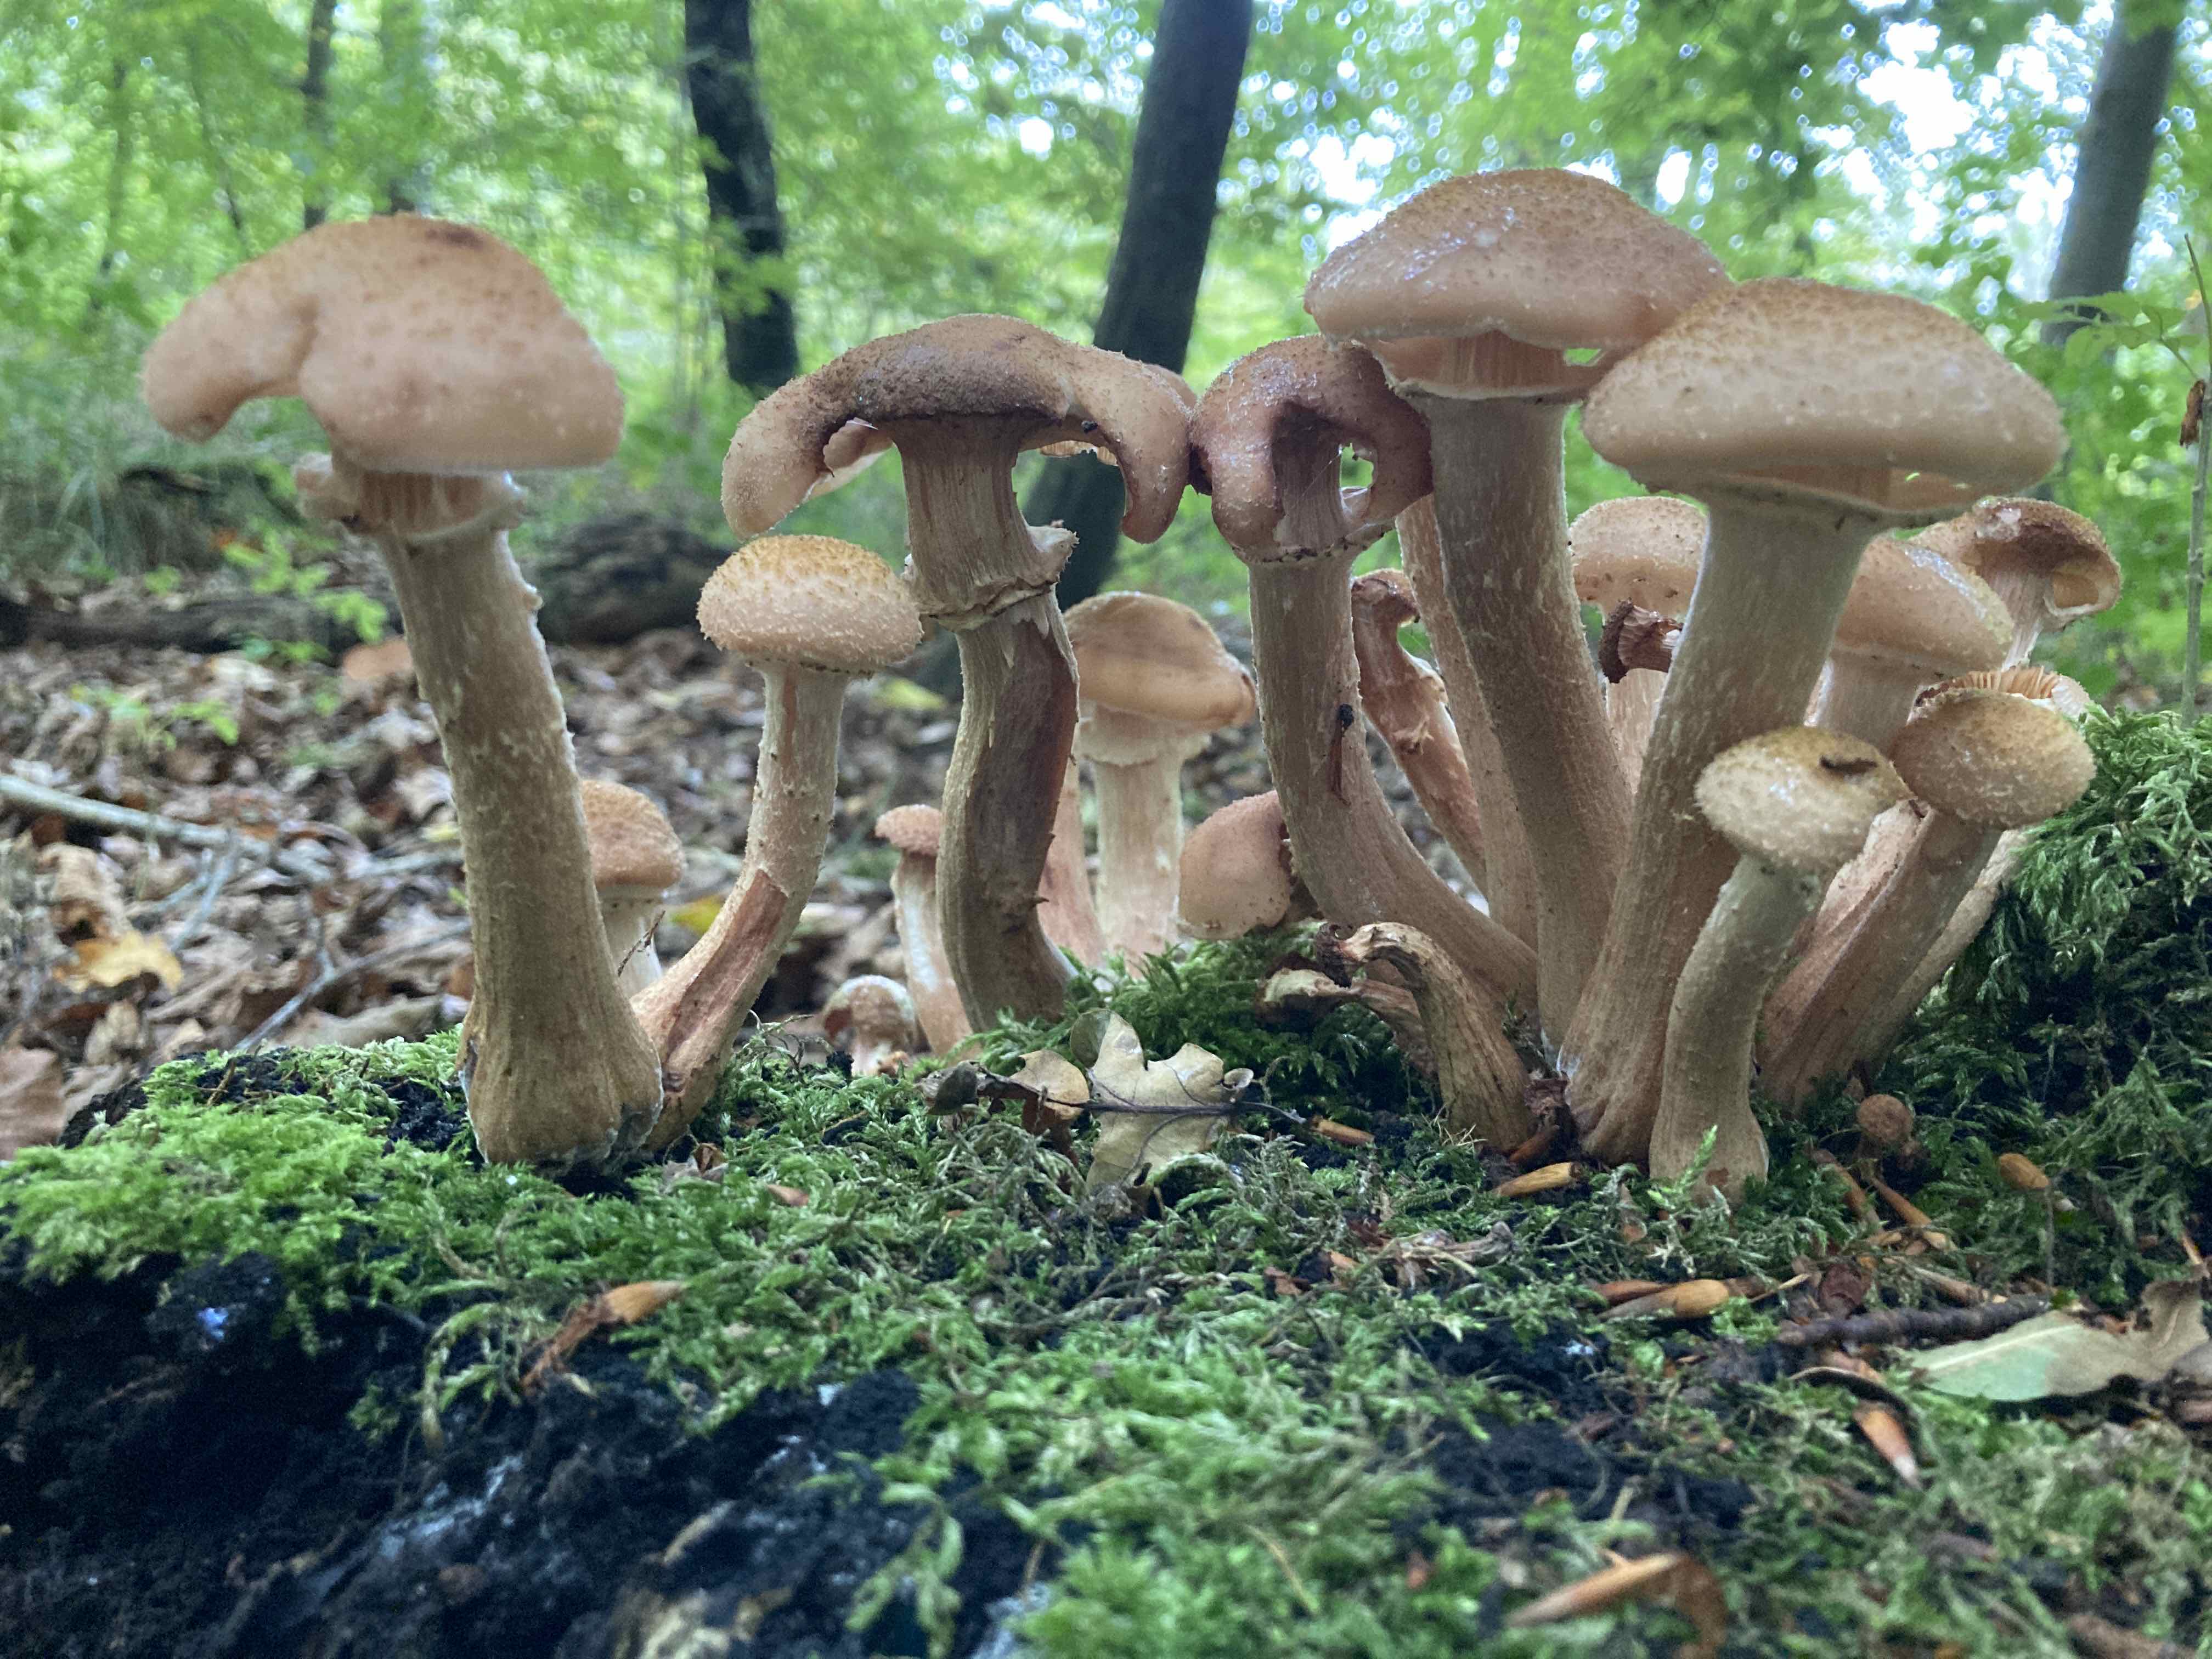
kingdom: Fungi
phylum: Basidiomycota
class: Agaricomycetes
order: Agaricales
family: Physalacriaceae
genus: Armillaria
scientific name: Armillaria lutea
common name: køllestokket honningsvamp
